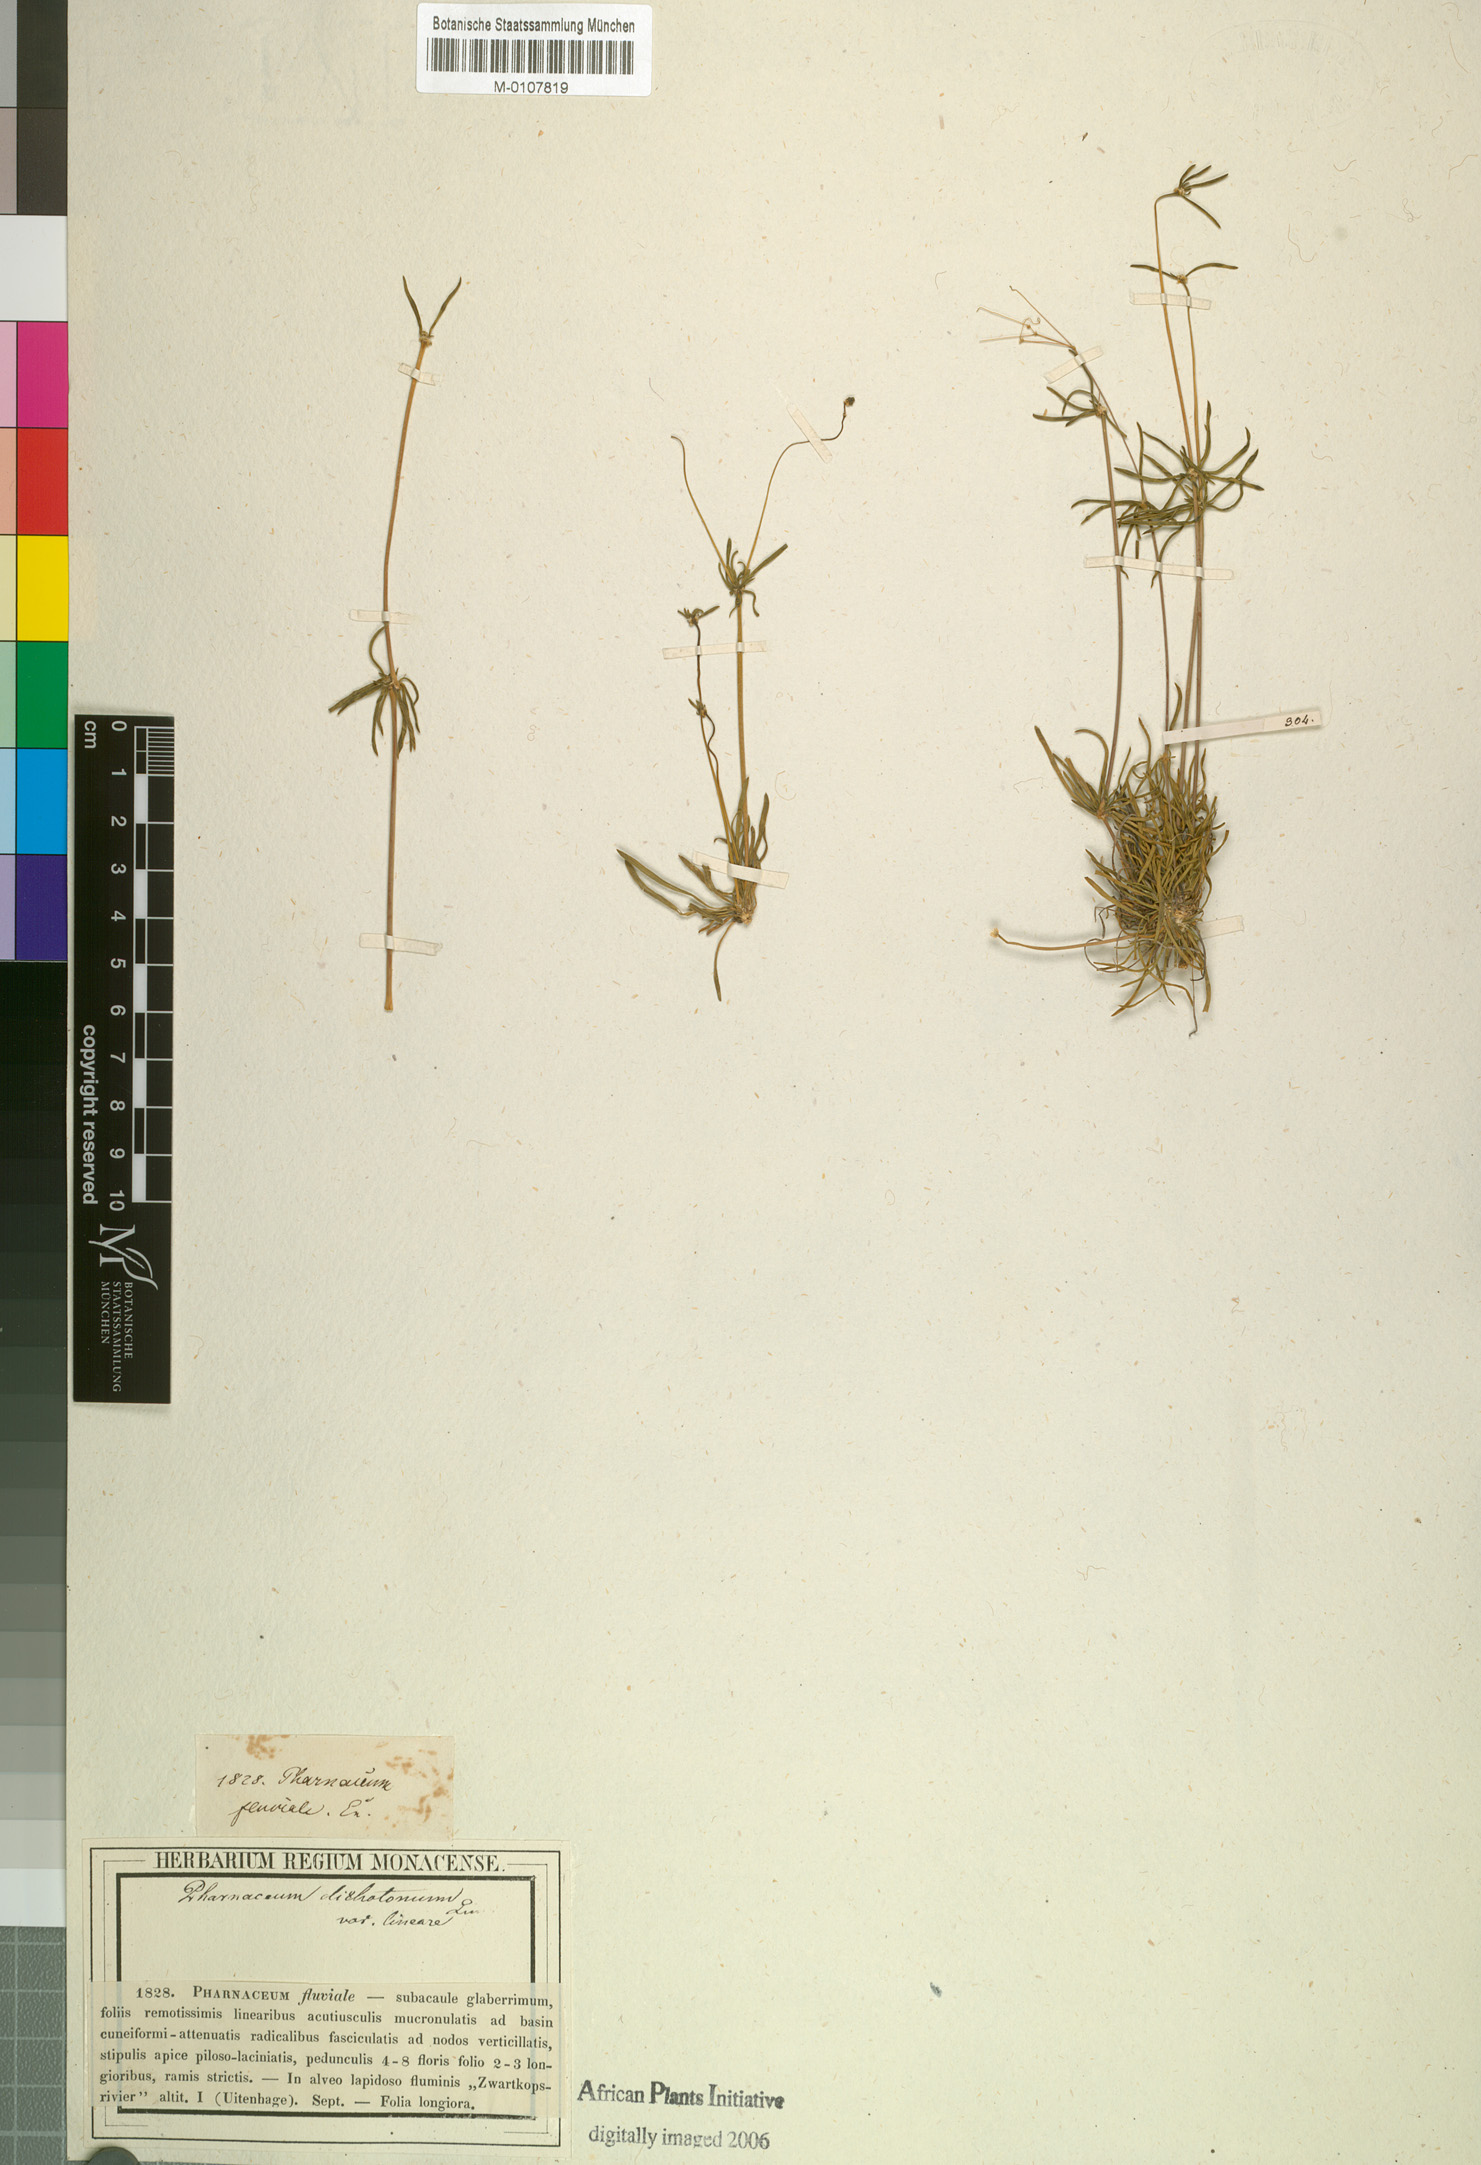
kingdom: Plantae
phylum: Tracheophyta
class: Magnoliopsida
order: Caryophyllales
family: Molluginaceae
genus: Pharnaceum
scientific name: Pharnaceum dichotomum
